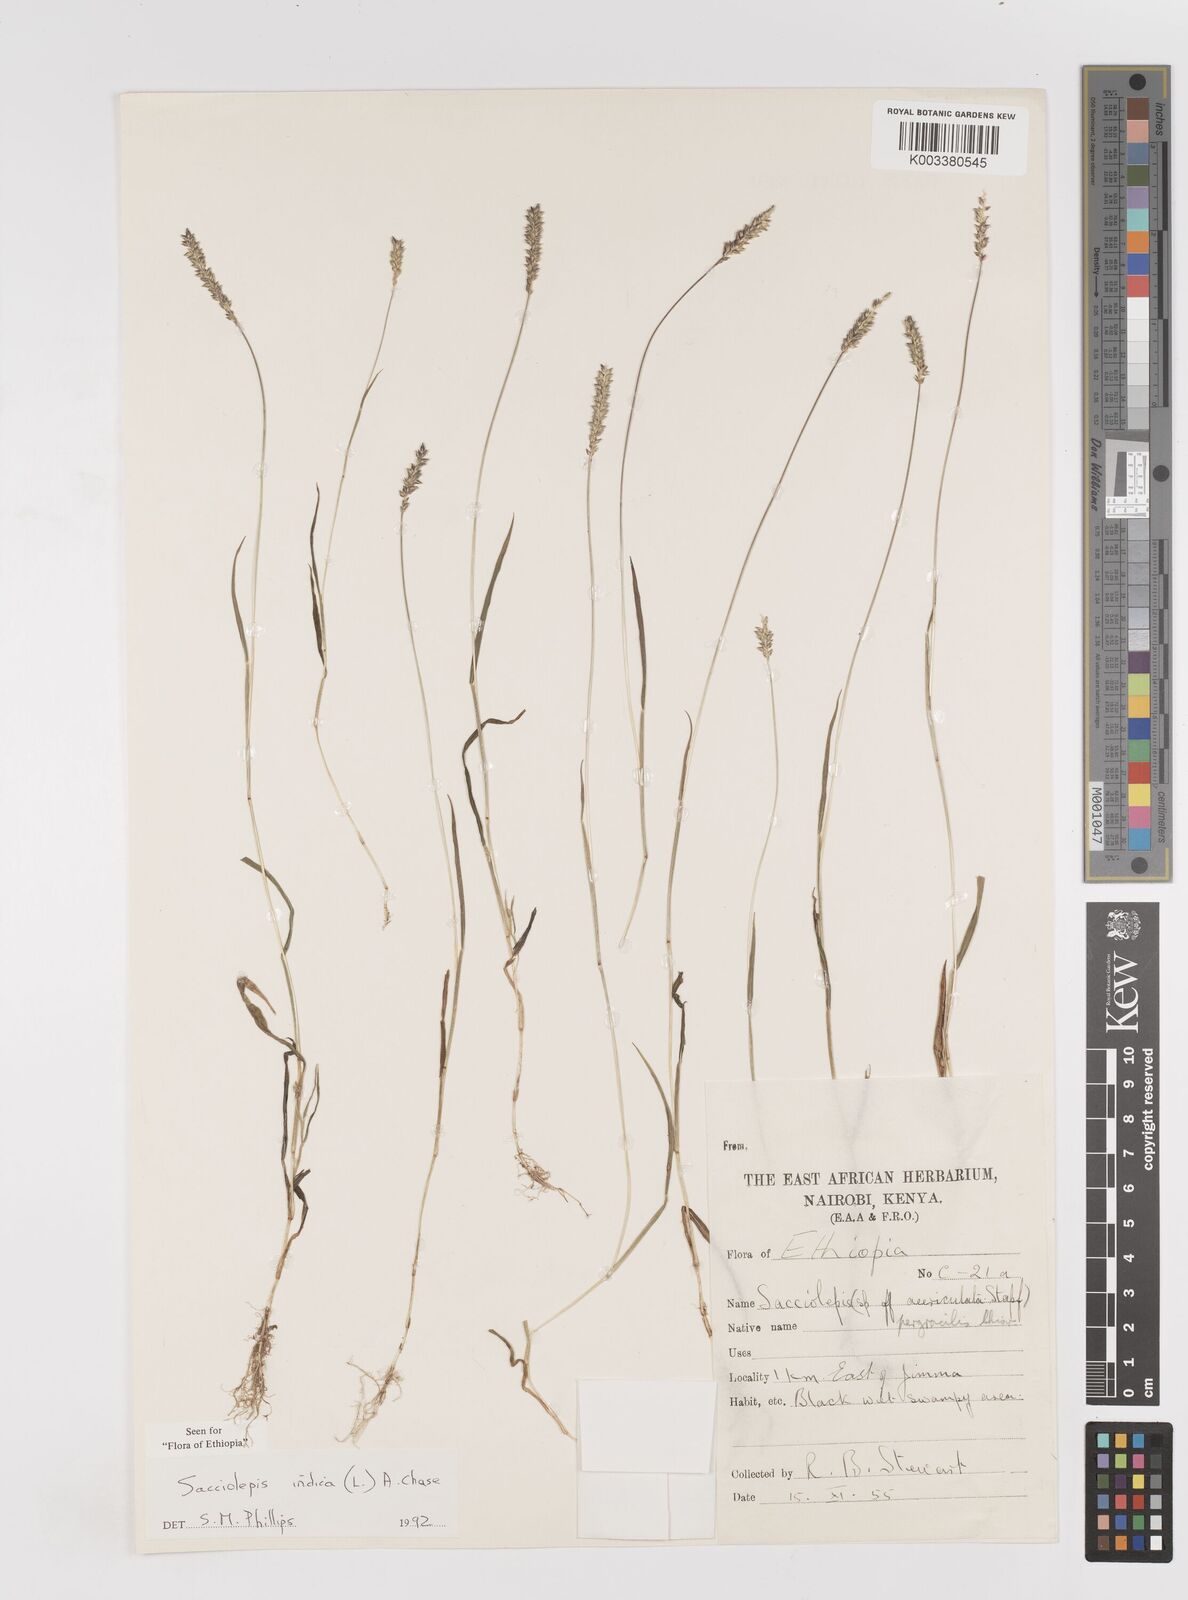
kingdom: Plantae
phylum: Tracheophyta
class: Liliopsida
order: Poales
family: Poaceae
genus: Sacciolepis
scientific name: Sacciolepis indica
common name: Glenwoodgrass
